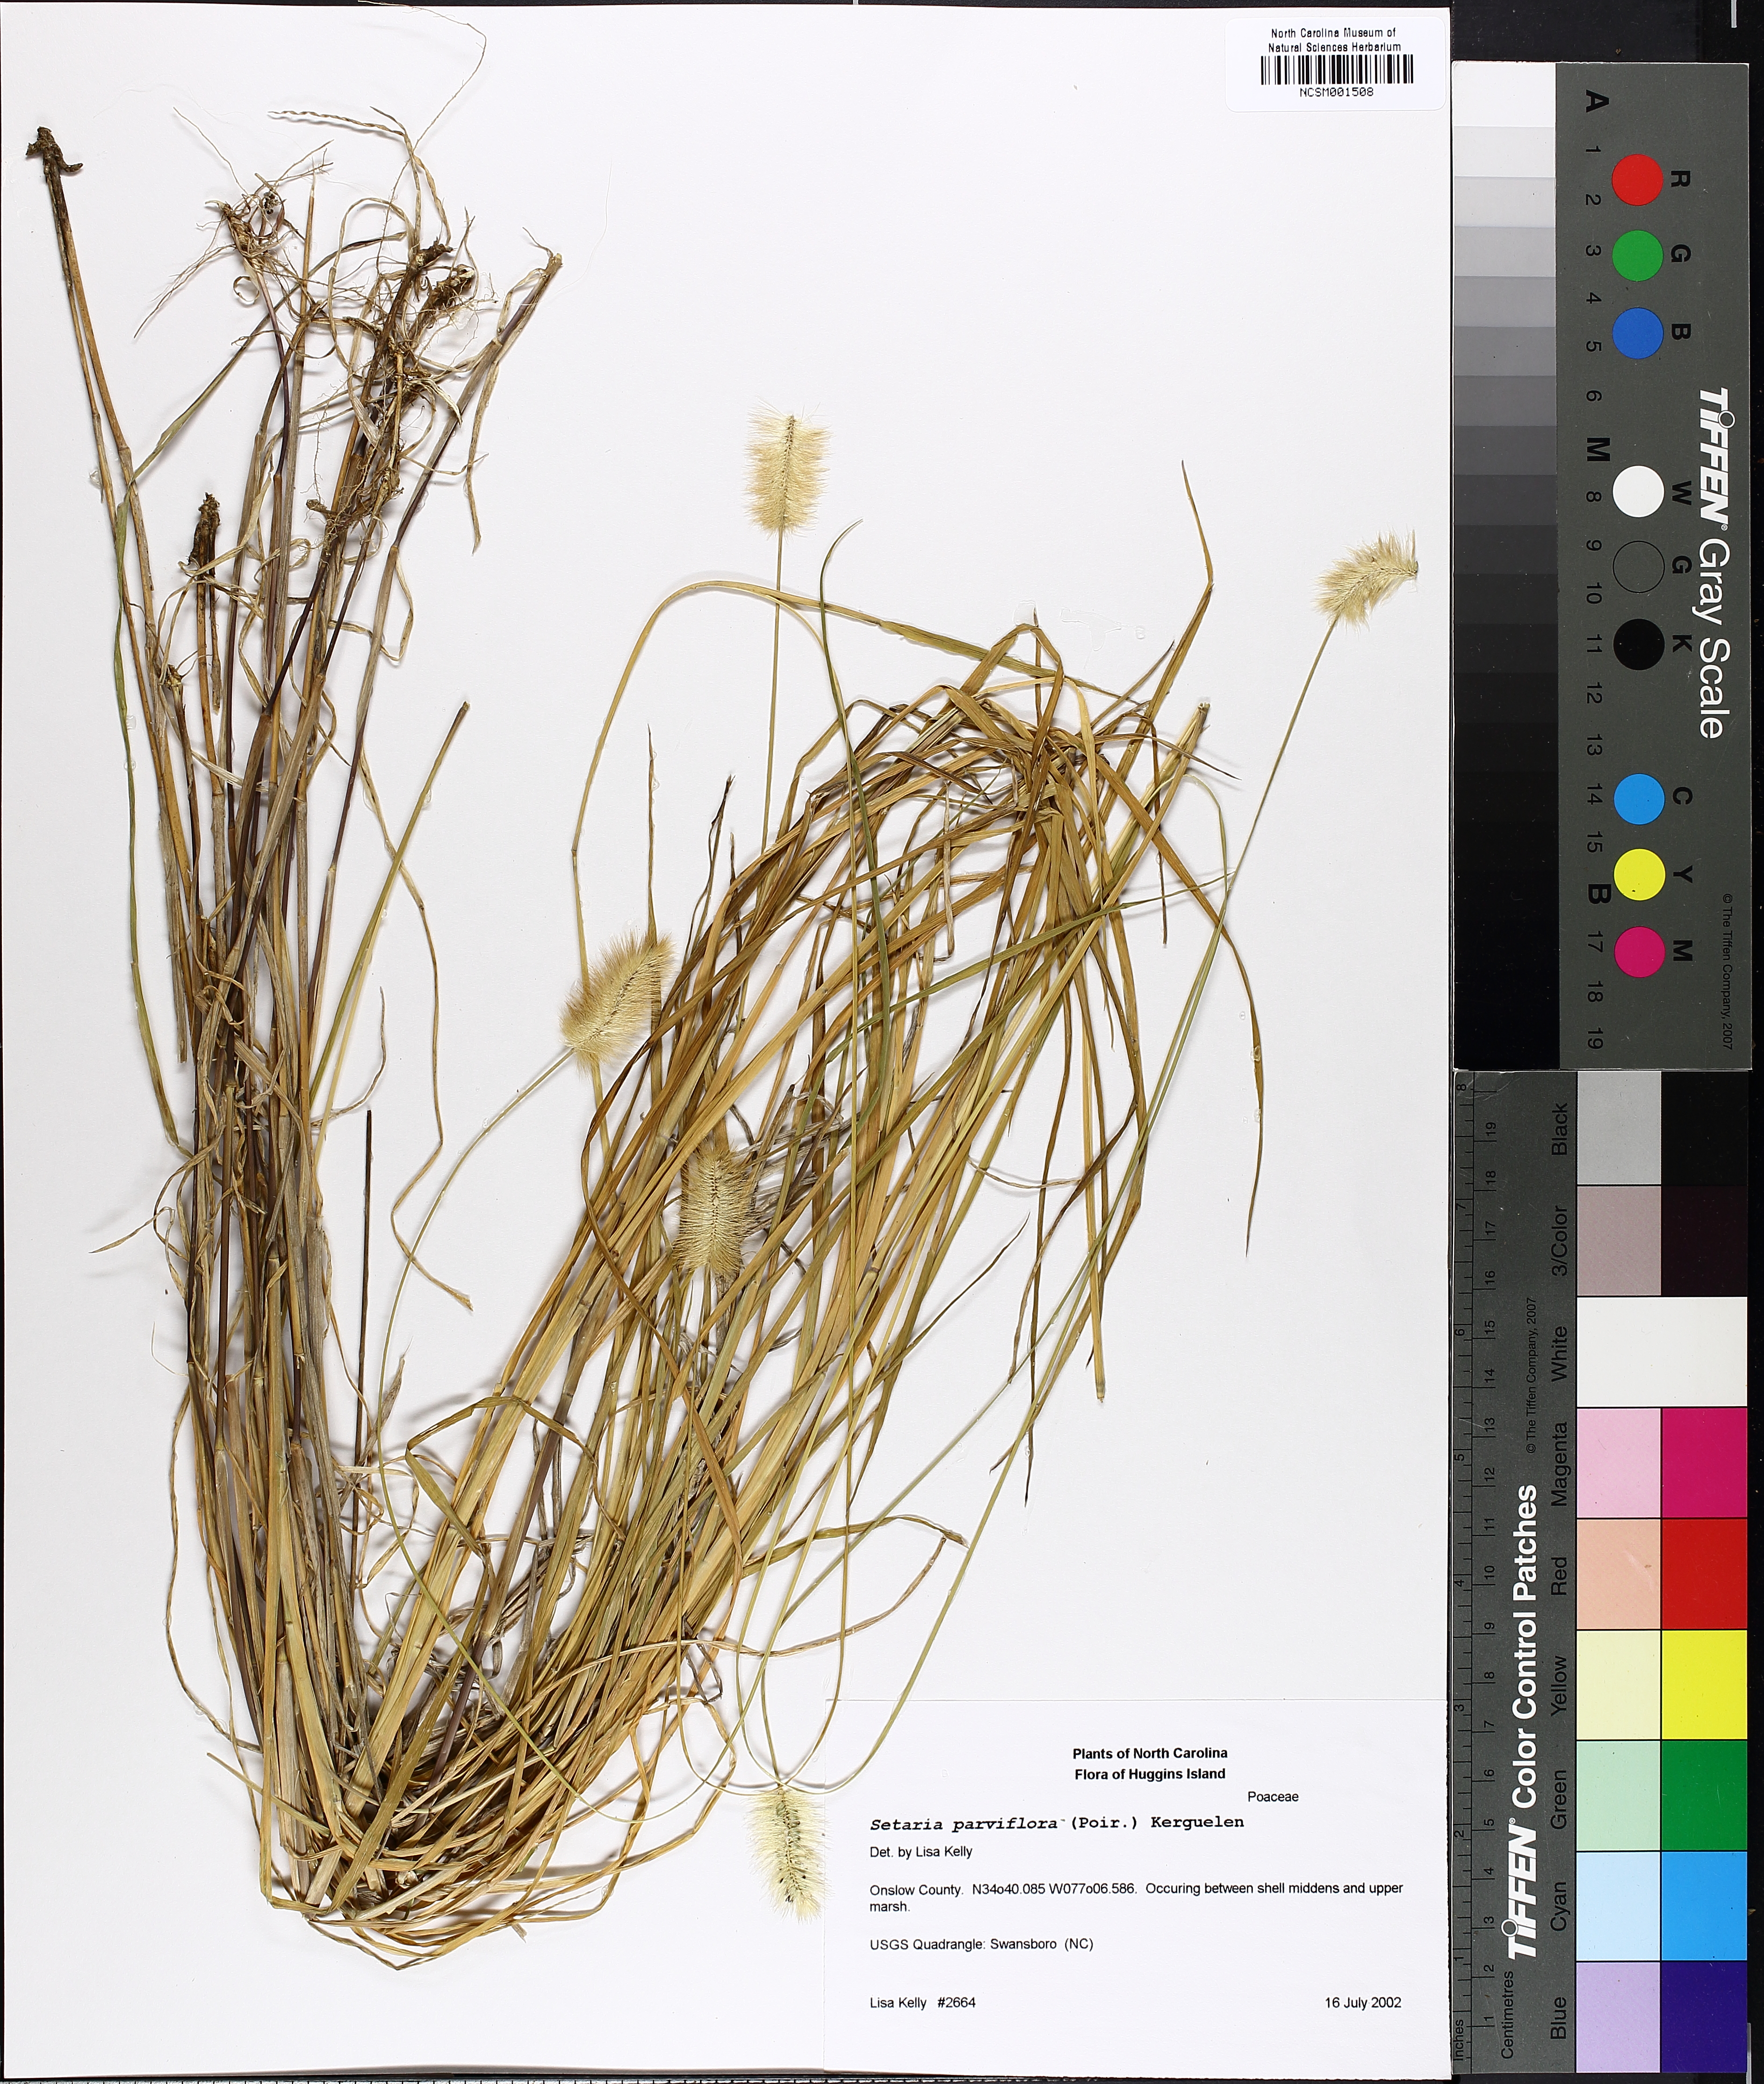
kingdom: Plantae
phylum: Tracheophyta
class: Liliopsida
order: Poales
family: Poaceae
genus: Setaria
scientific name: Setaria parviflora
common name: Knotroot bristle-grass
